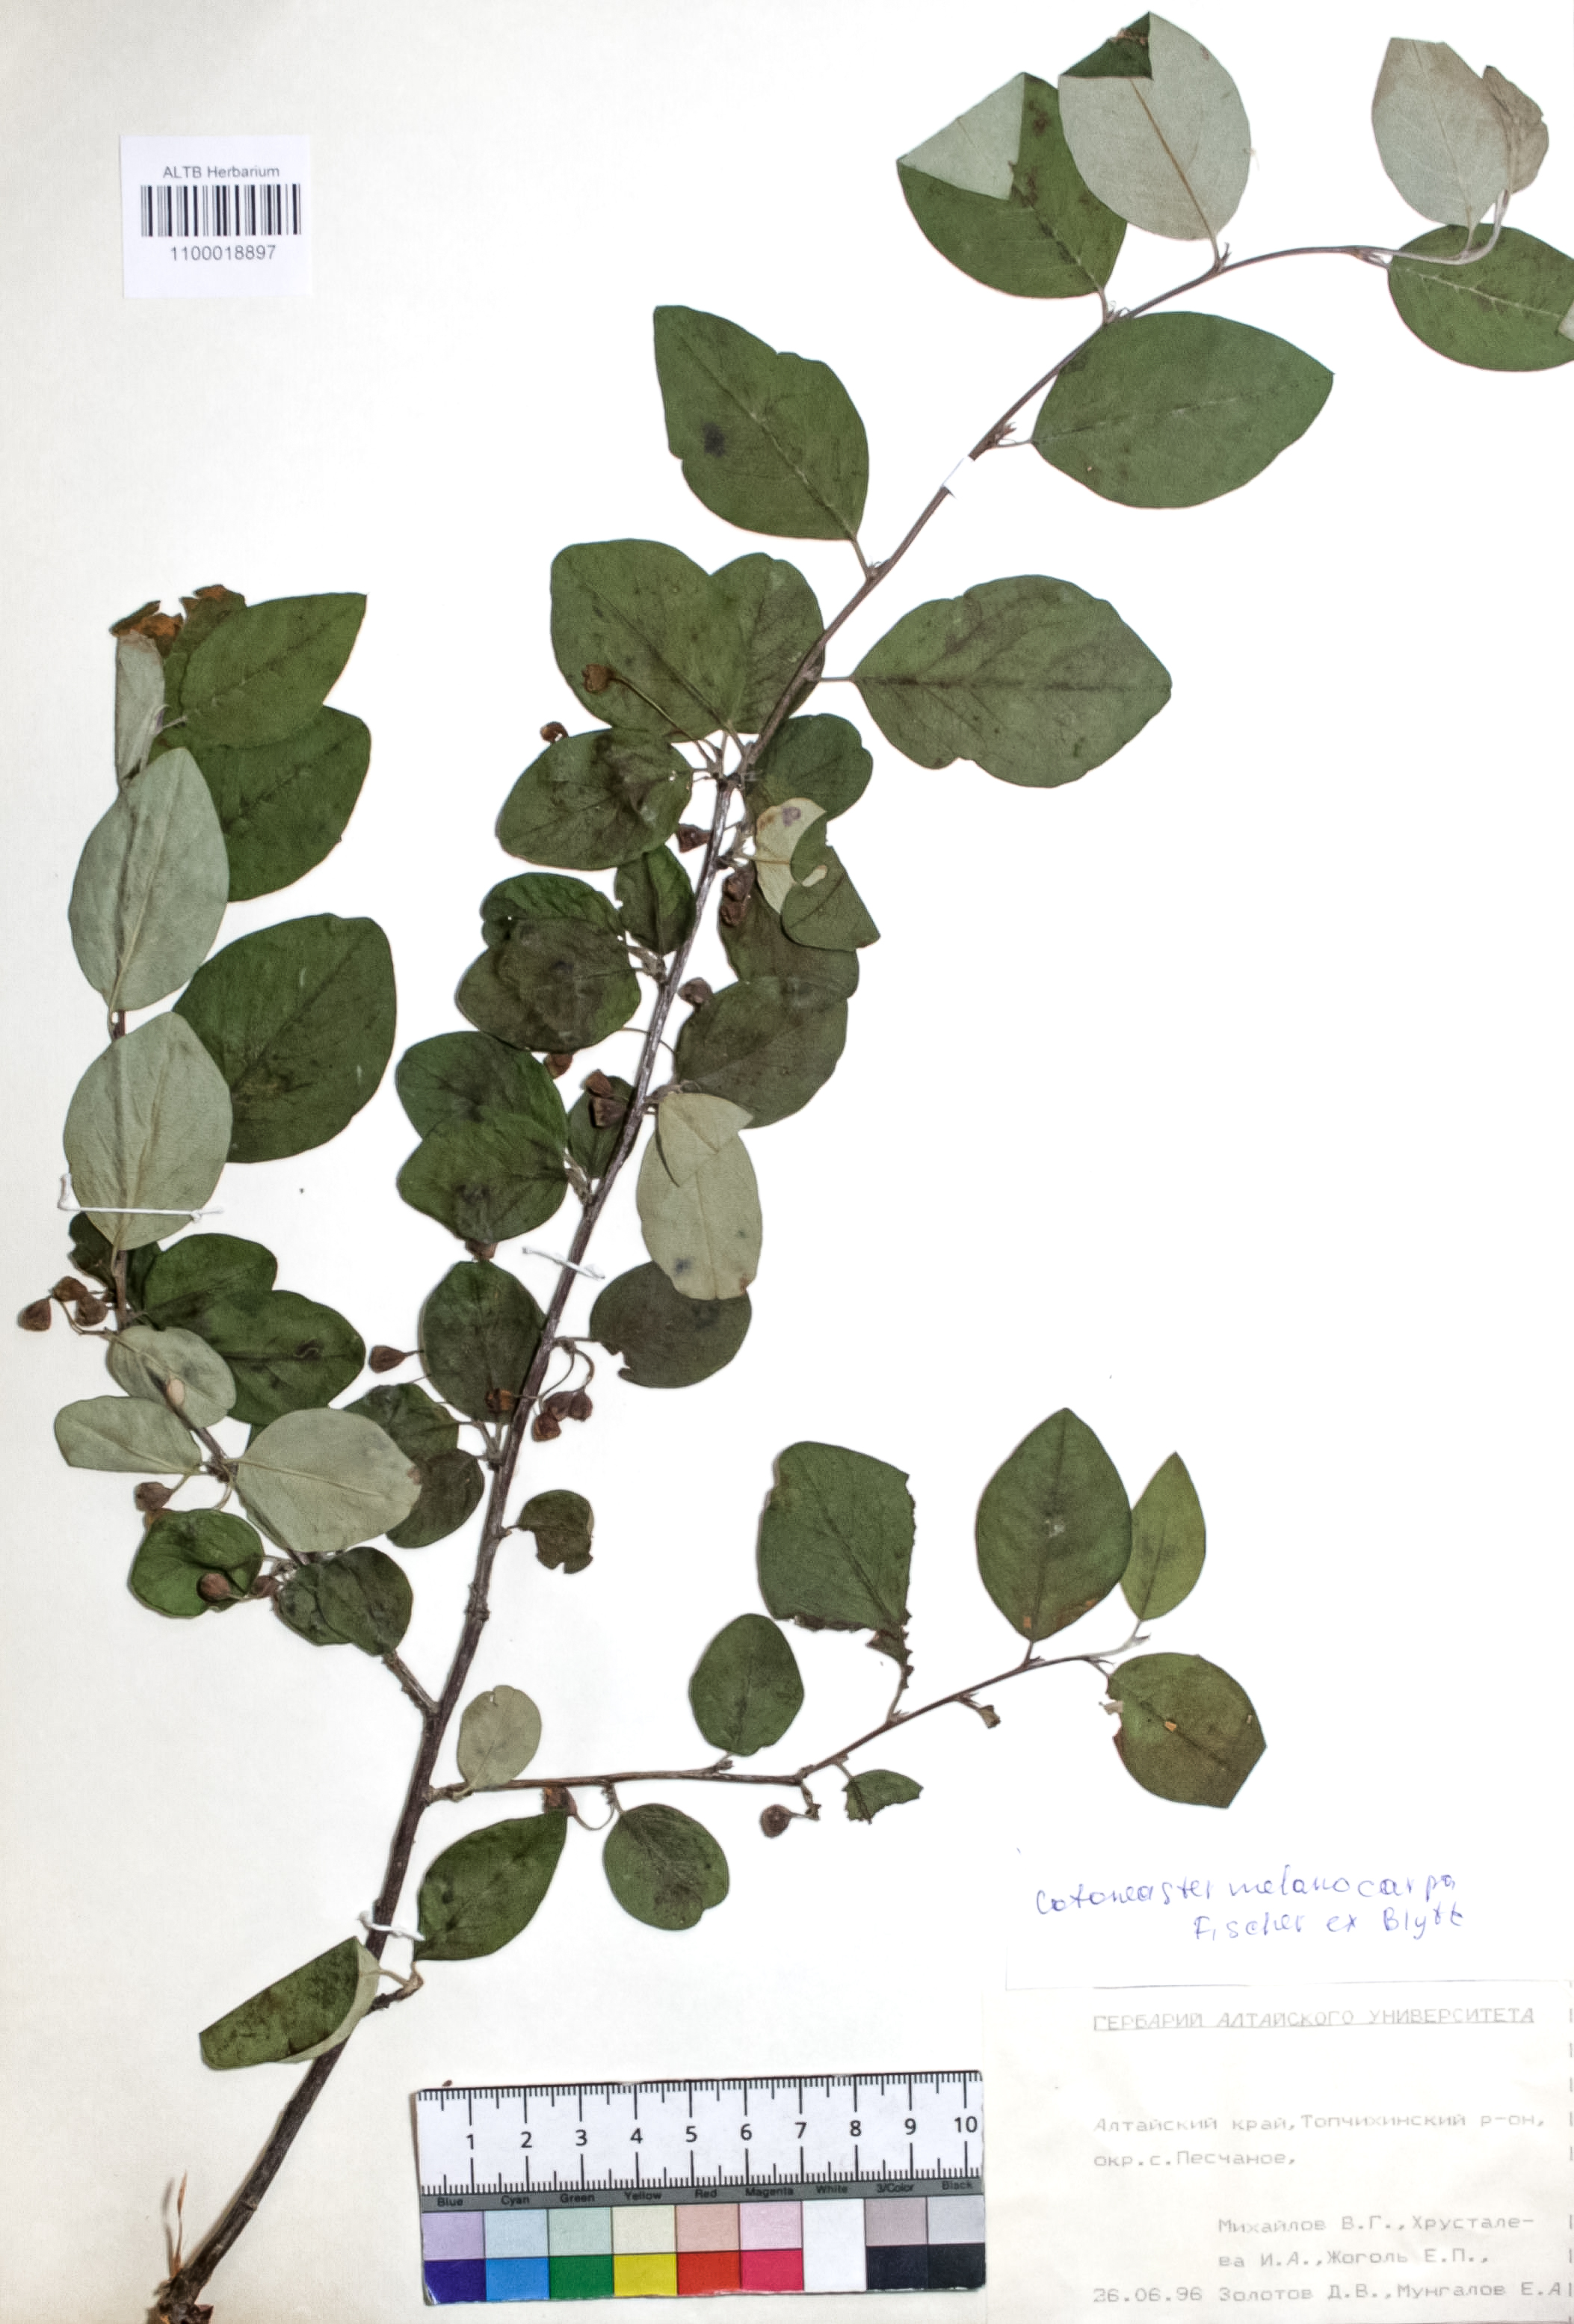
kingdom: Plantae
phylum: Tracheophyta
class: Magnoliopsida
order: Rosales
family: Rosaceae
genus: Cotoneaster
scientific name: Cotoneaster niger
